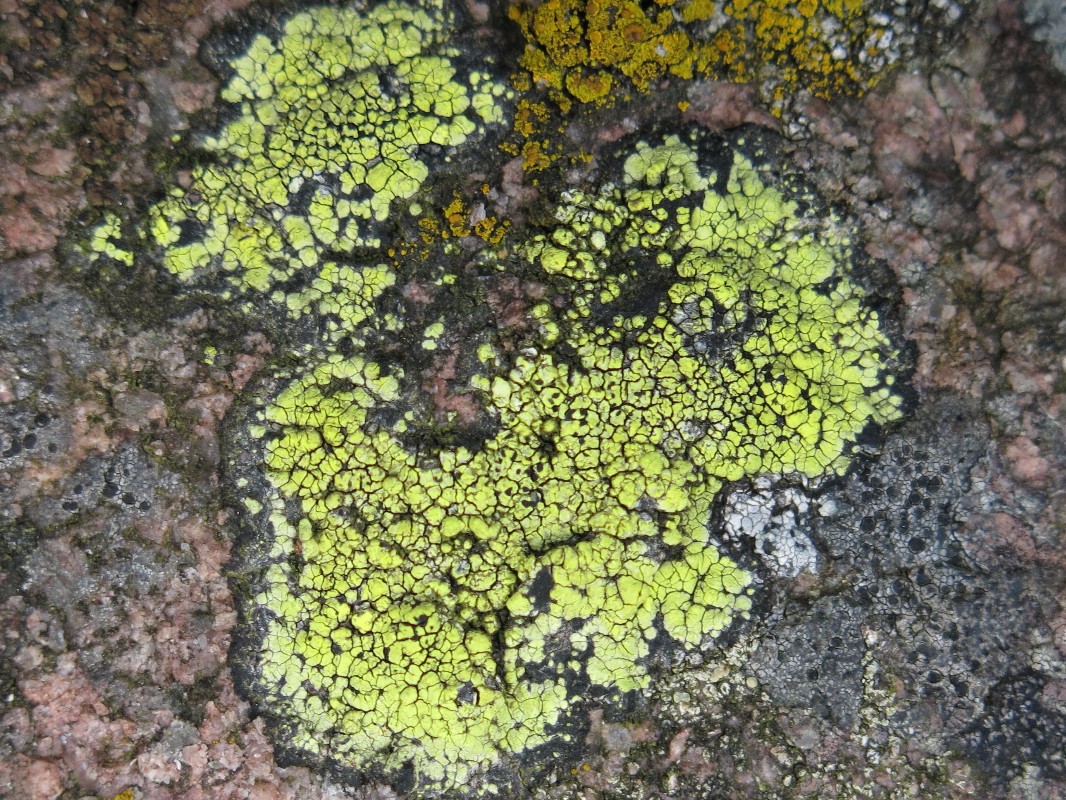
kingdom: Fungi
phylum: Ascomycota
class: Lecanoromycetes
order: Rhizocarpales
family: Rhizocarpaceae
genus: Rhizocarpon
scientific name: Rhizocarpon lecanorinum
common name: krave-landkortlav
